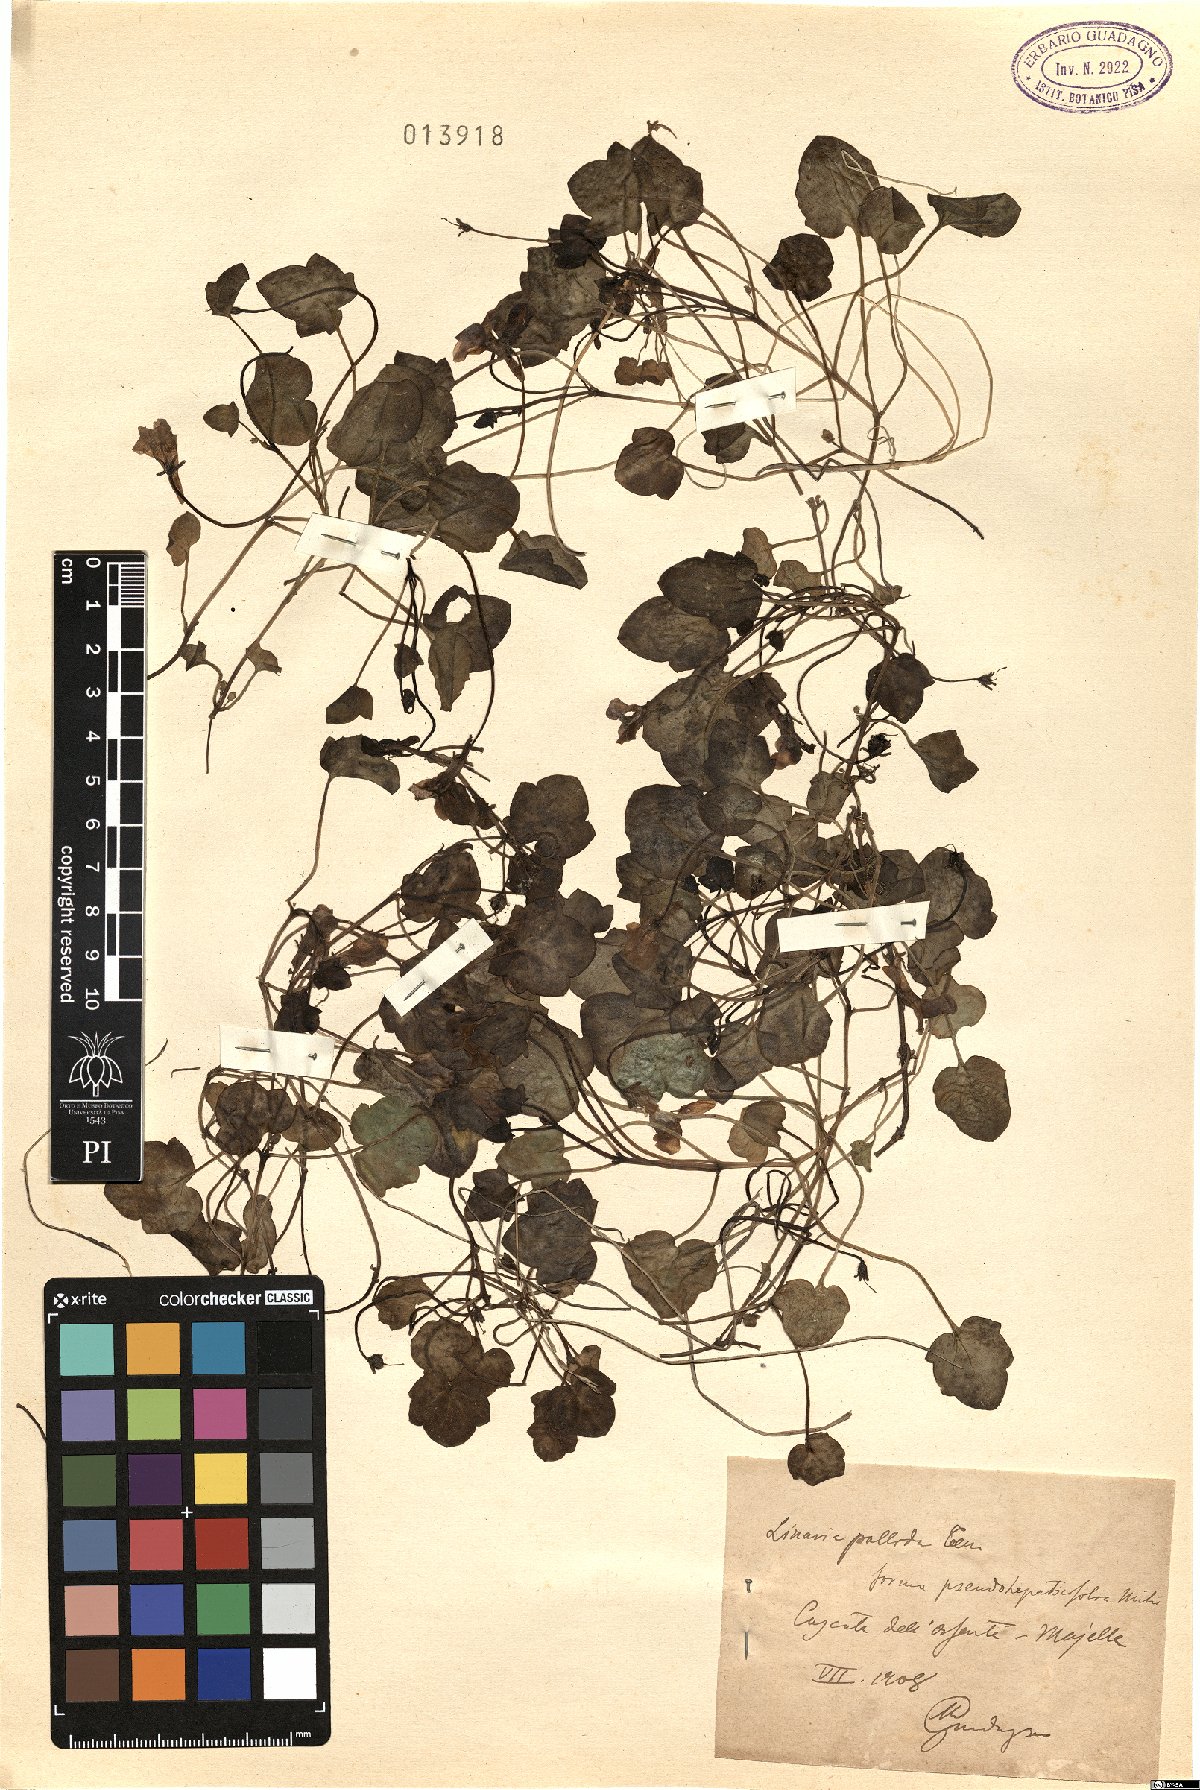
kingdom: Plantae
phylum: Tracheophyta
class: Magnoliopsida
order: Lamiales
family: Plantaginaceae
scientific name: Plantaginaceae
